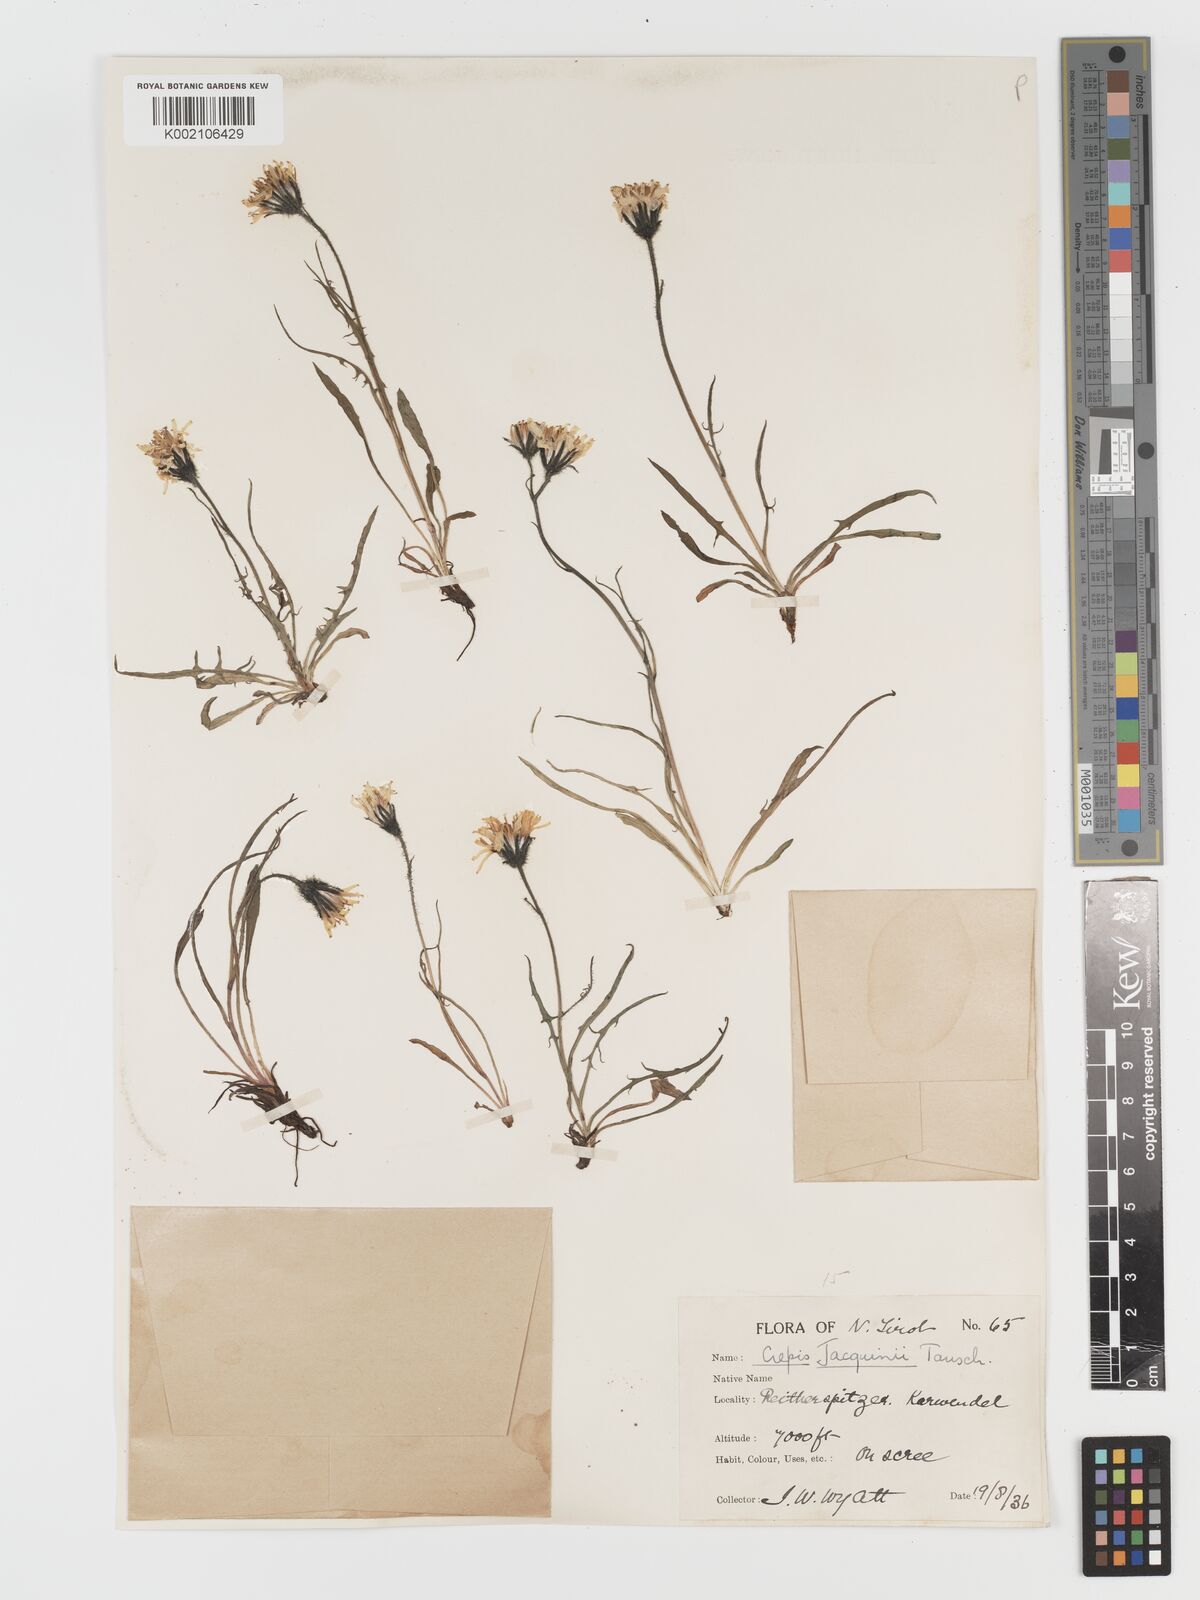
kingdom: Plantae
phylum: Tracheophyta
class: Magnoliopsida
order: Asterales
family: Asteraceae
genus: Crepis
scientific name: Crepis jacquinii
